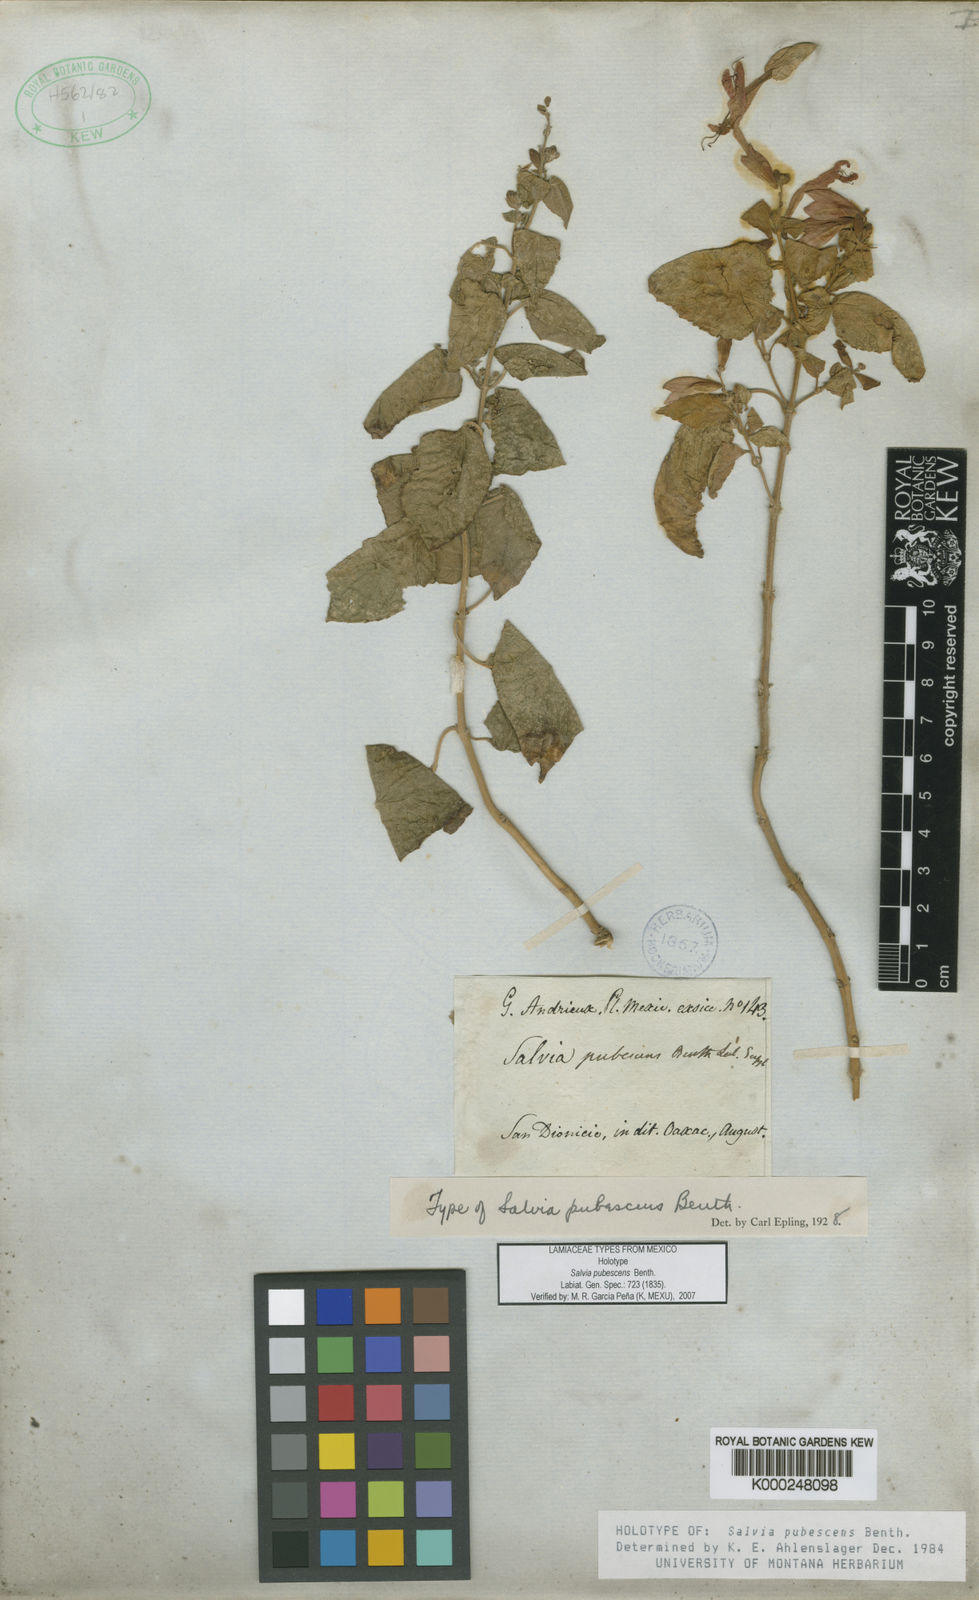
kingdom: Plantae
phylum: Tracheophyta
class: Magnoliopsida
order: Lamiales
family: Lamiaceae
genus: Salvia
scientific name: Salvia pubescens
